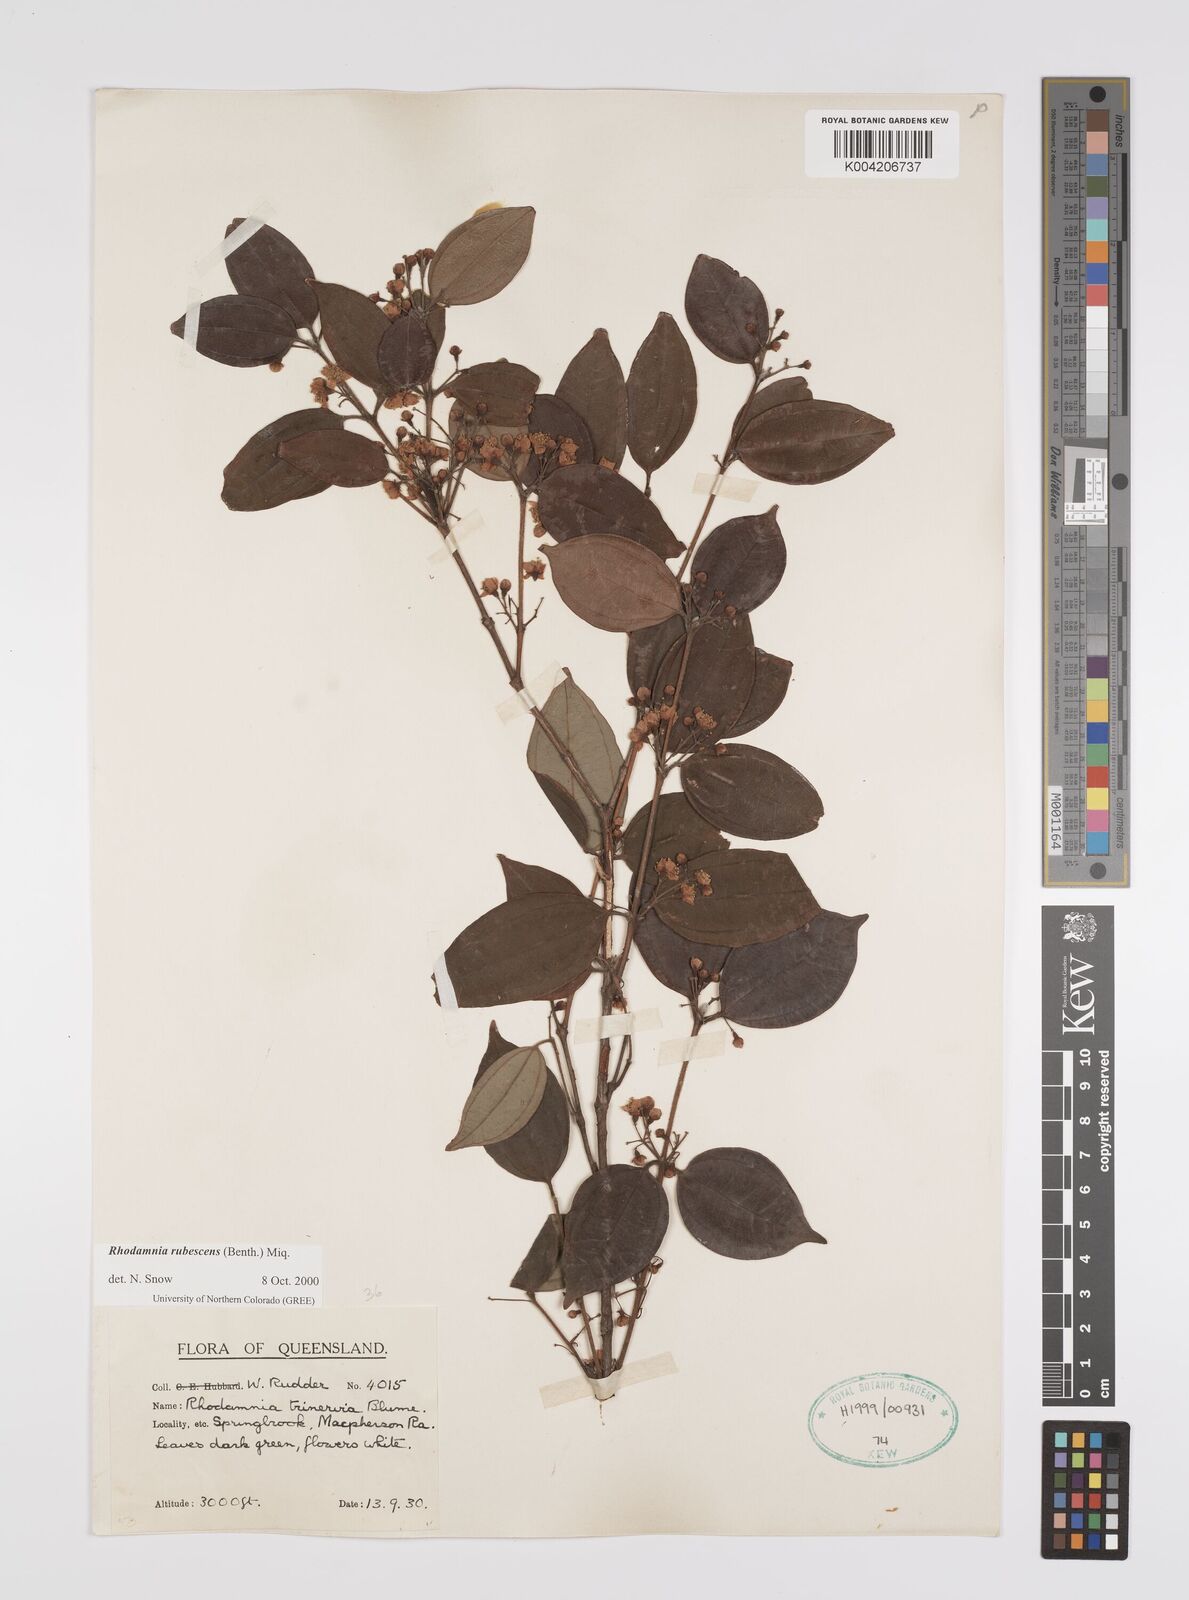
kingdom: Plantae
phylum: Tracheophyta
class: Magnoliopsida
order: Myrtales
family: Myrtaceae
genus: Rhodamnia
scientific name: Rhodamnia rubescens
